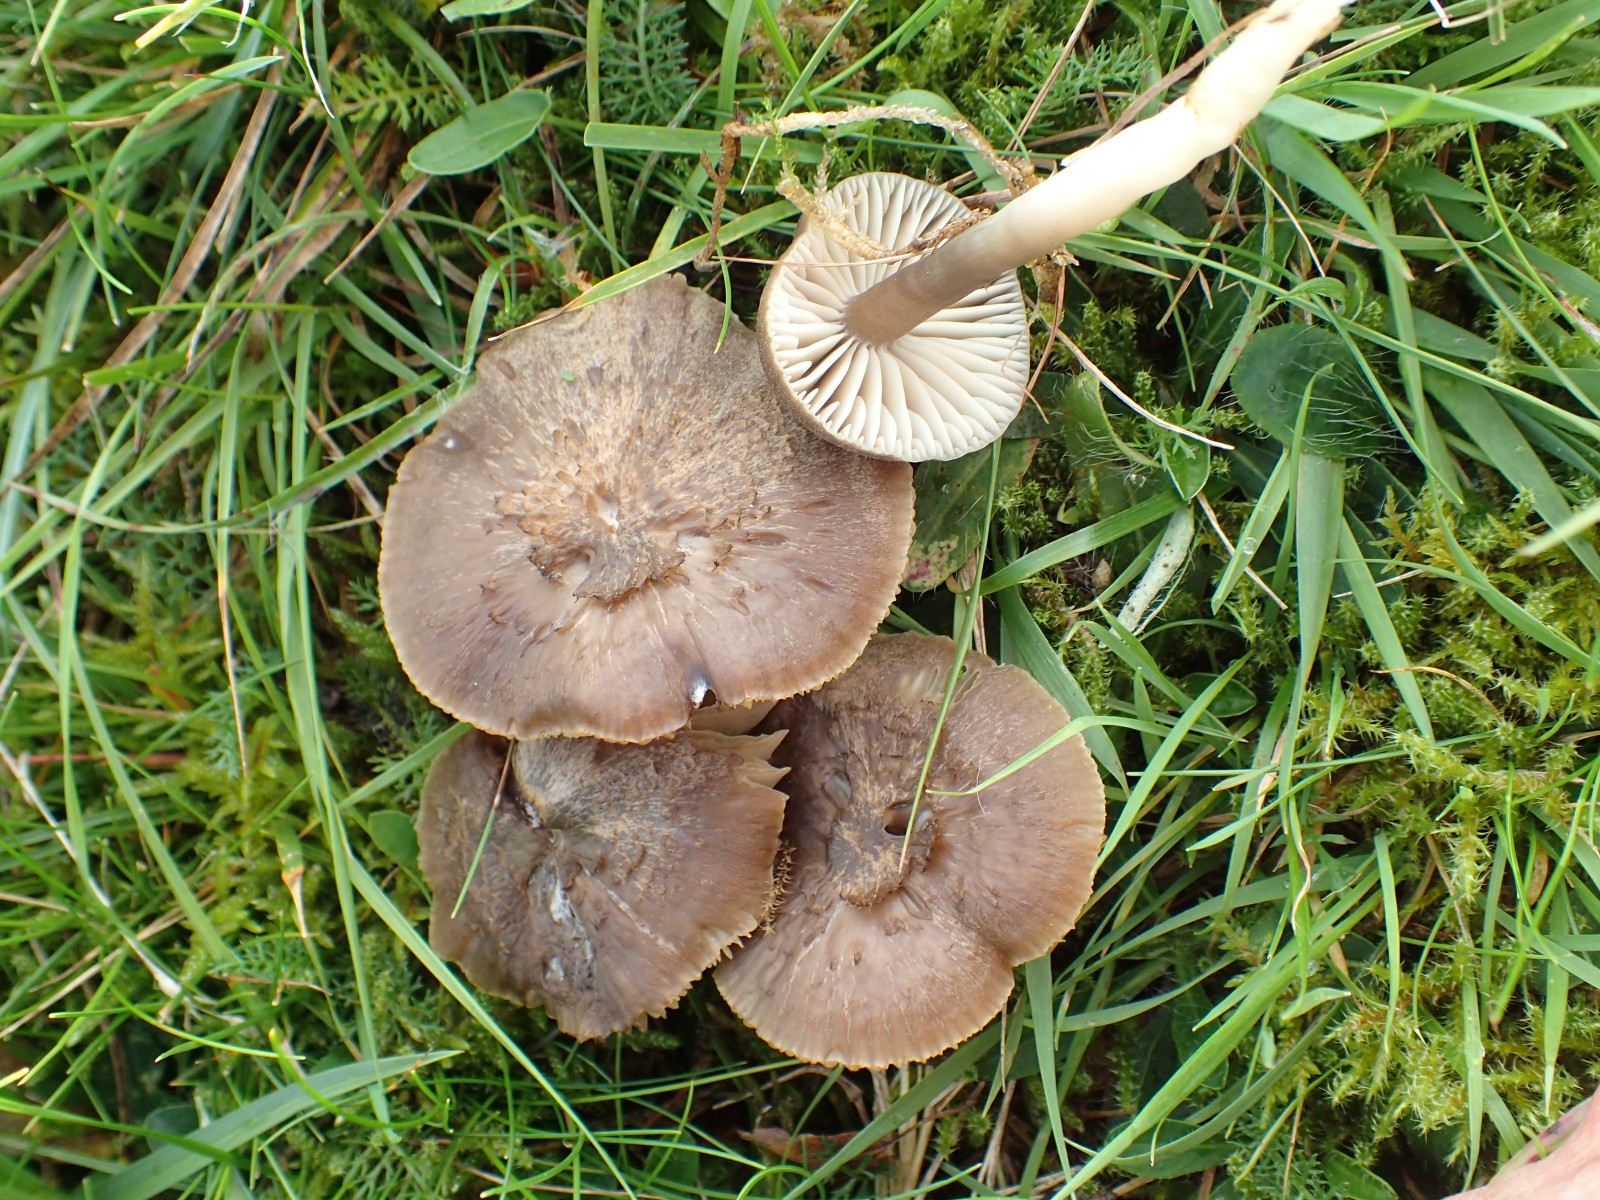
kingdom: Fungi
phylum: Basidiomycota
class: Agaricomycetes
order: Agaricales
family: Hygrophoraceae
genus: Neohygrocybe
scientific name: Neohygrocybe nitrata
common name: stinkende vokshat
